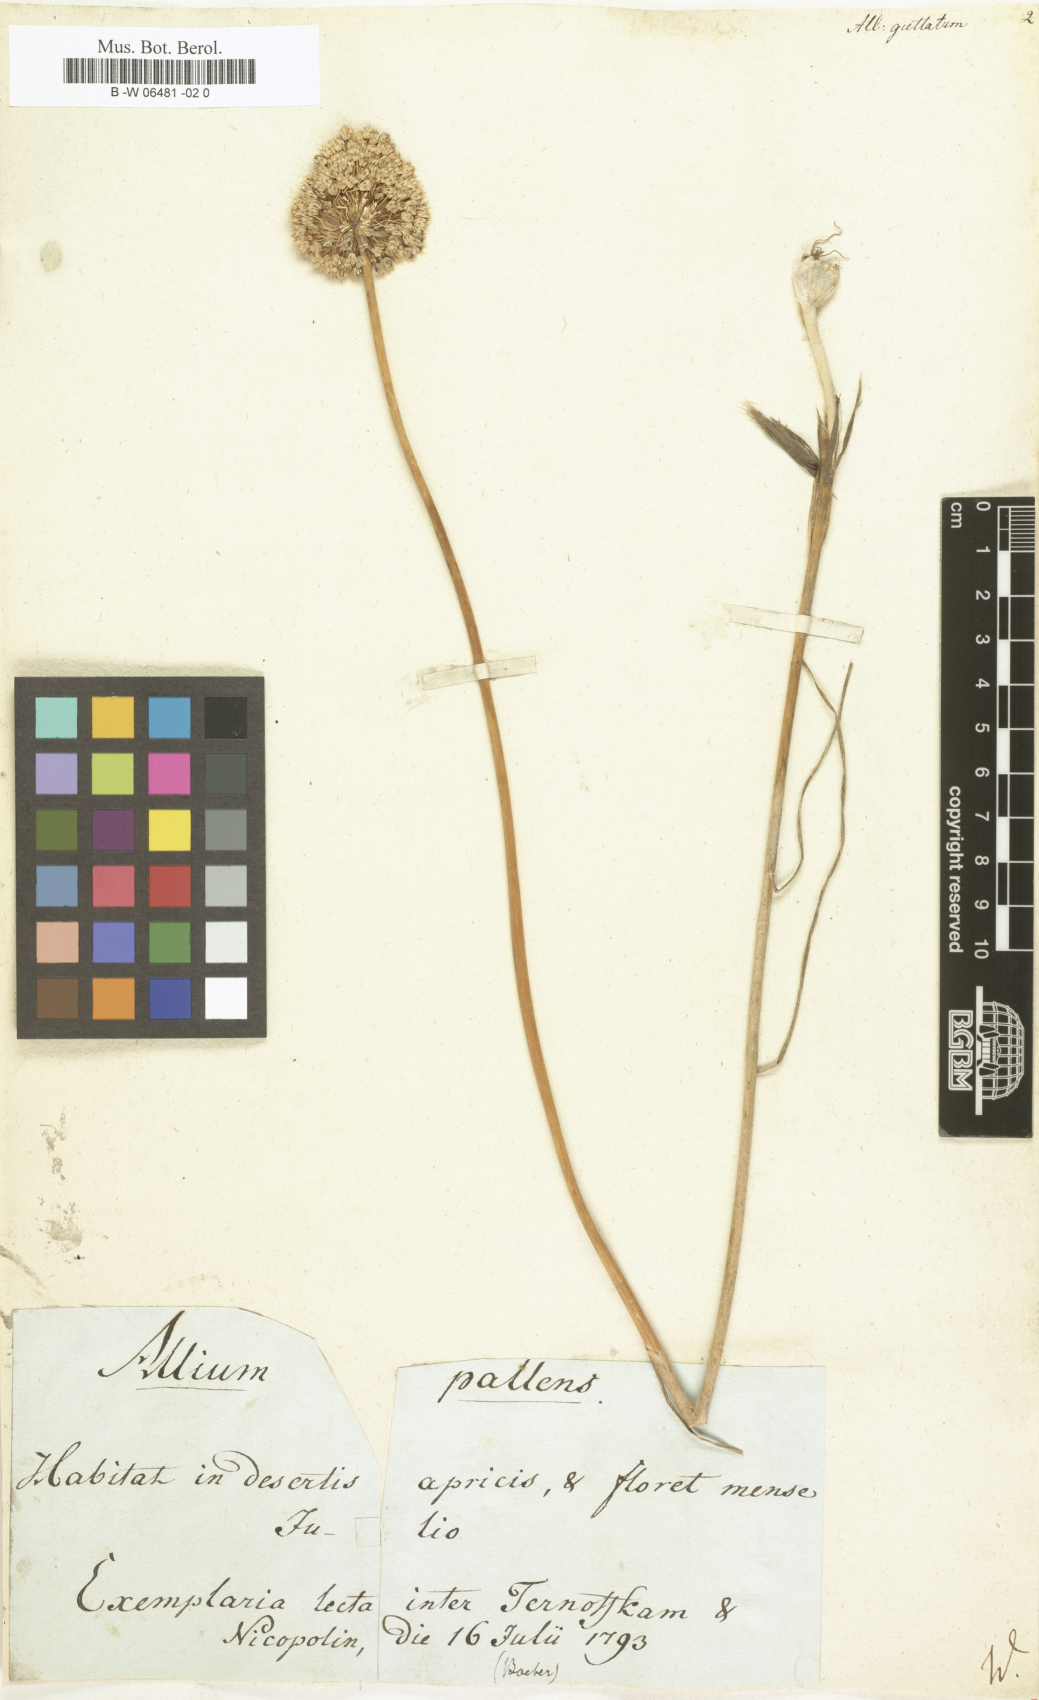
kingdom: Plantae
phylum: Tracheophyta
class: Liliopsida
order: Asparagales
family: Amaryllidaceae
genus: Allium
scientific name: Allium guttatum
